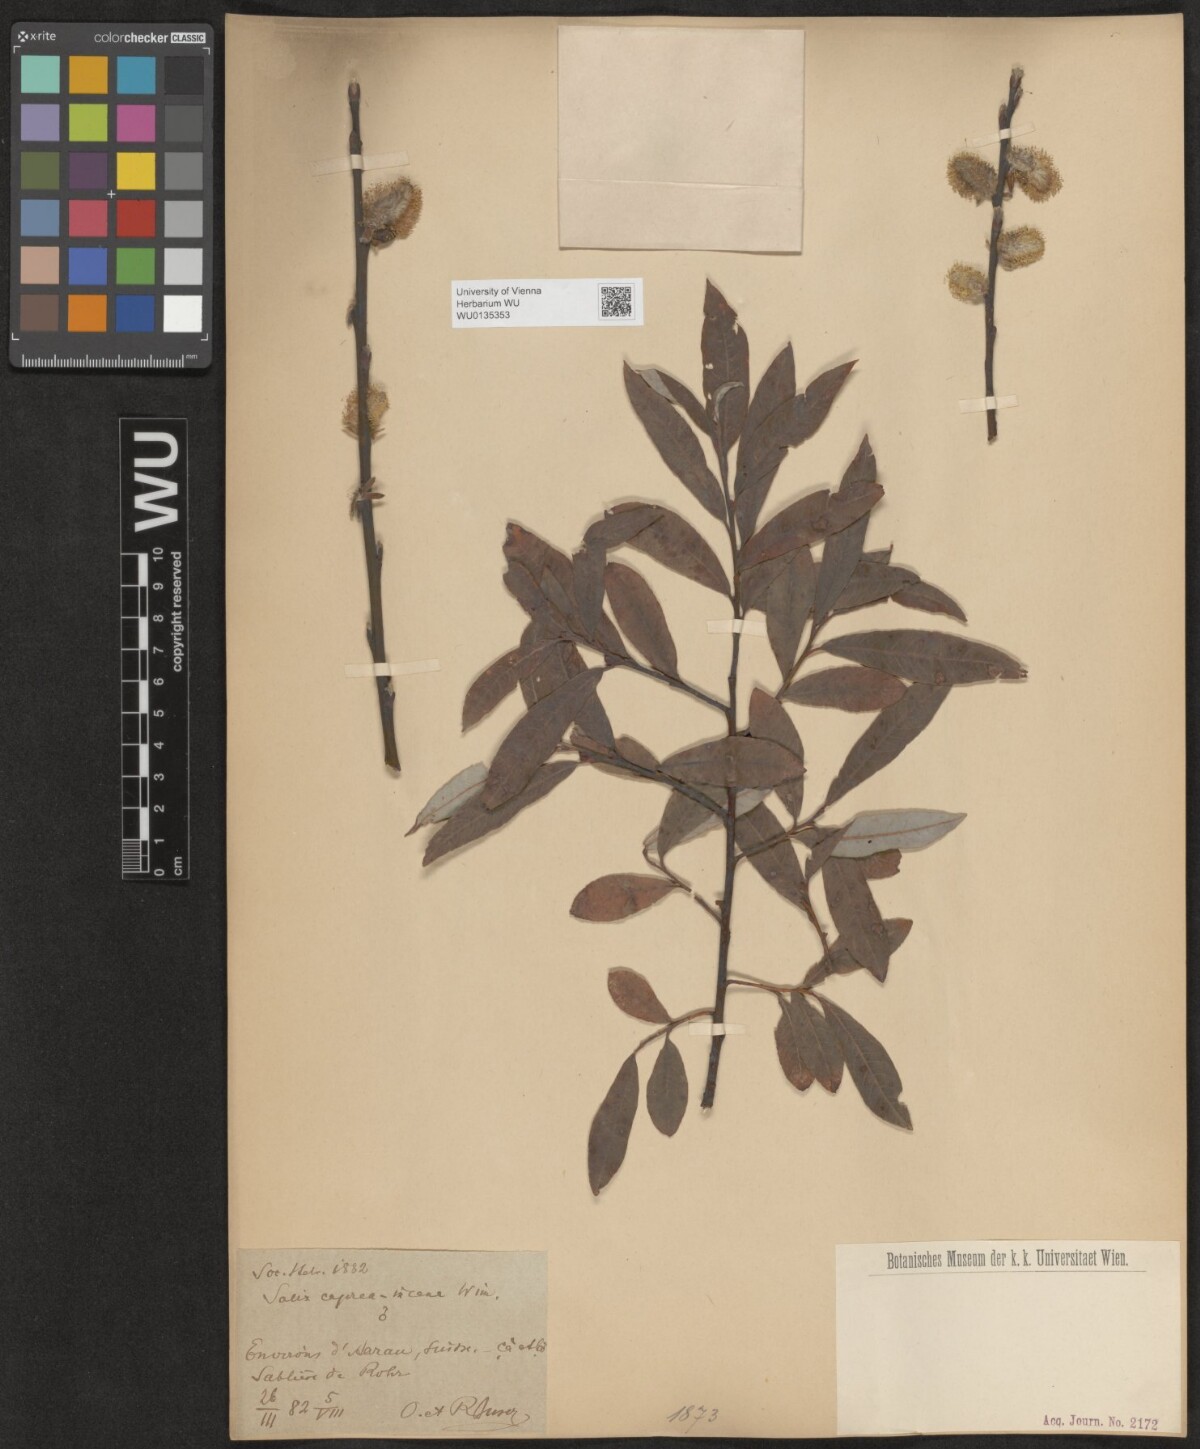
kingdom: Plantae
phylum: Tracheophyta
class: Magnoliopsida
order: Malpighiales
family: Salicaceae
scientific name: Salicaceae
